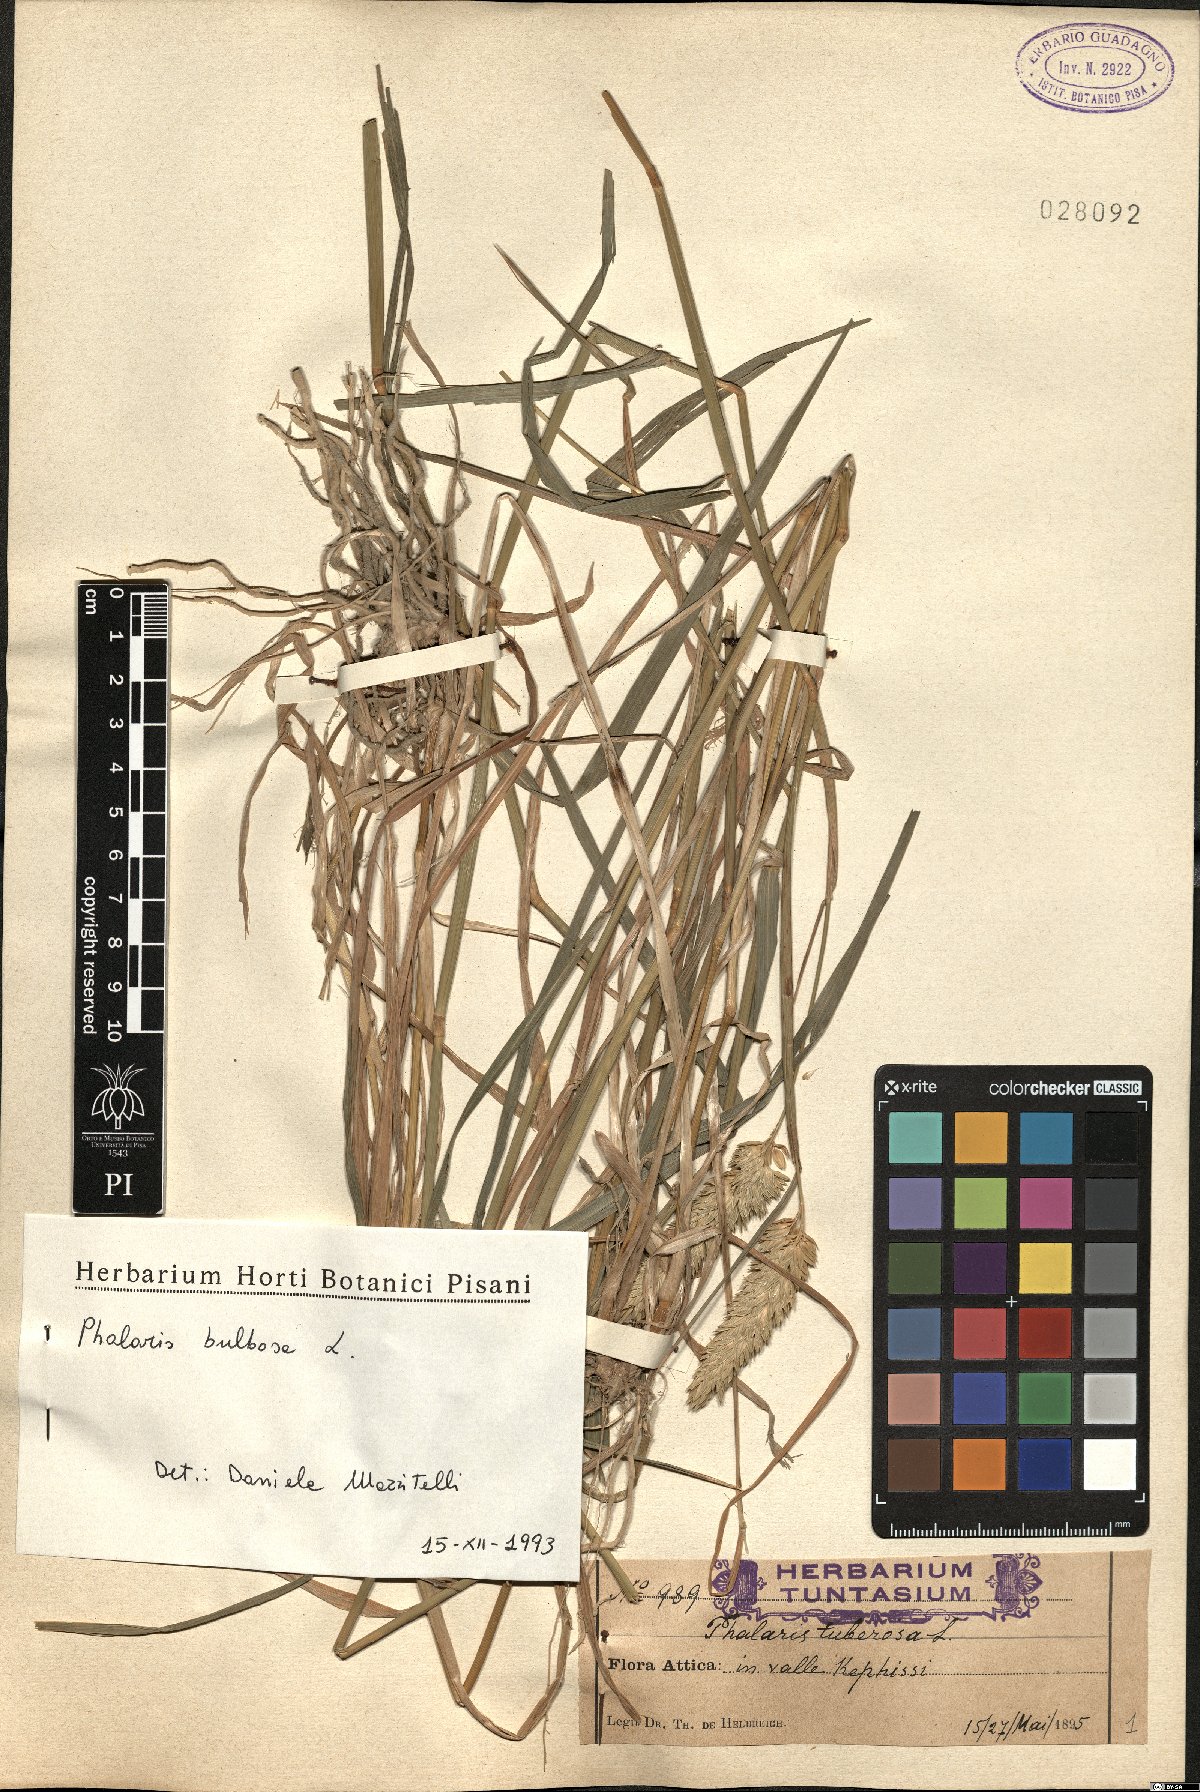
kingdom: Plantae
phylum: Tracheophyta
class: Liliopsida
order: Poales
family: Poaceae
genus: Phleum
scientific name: Phleum subulatum
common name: Italian timothy
